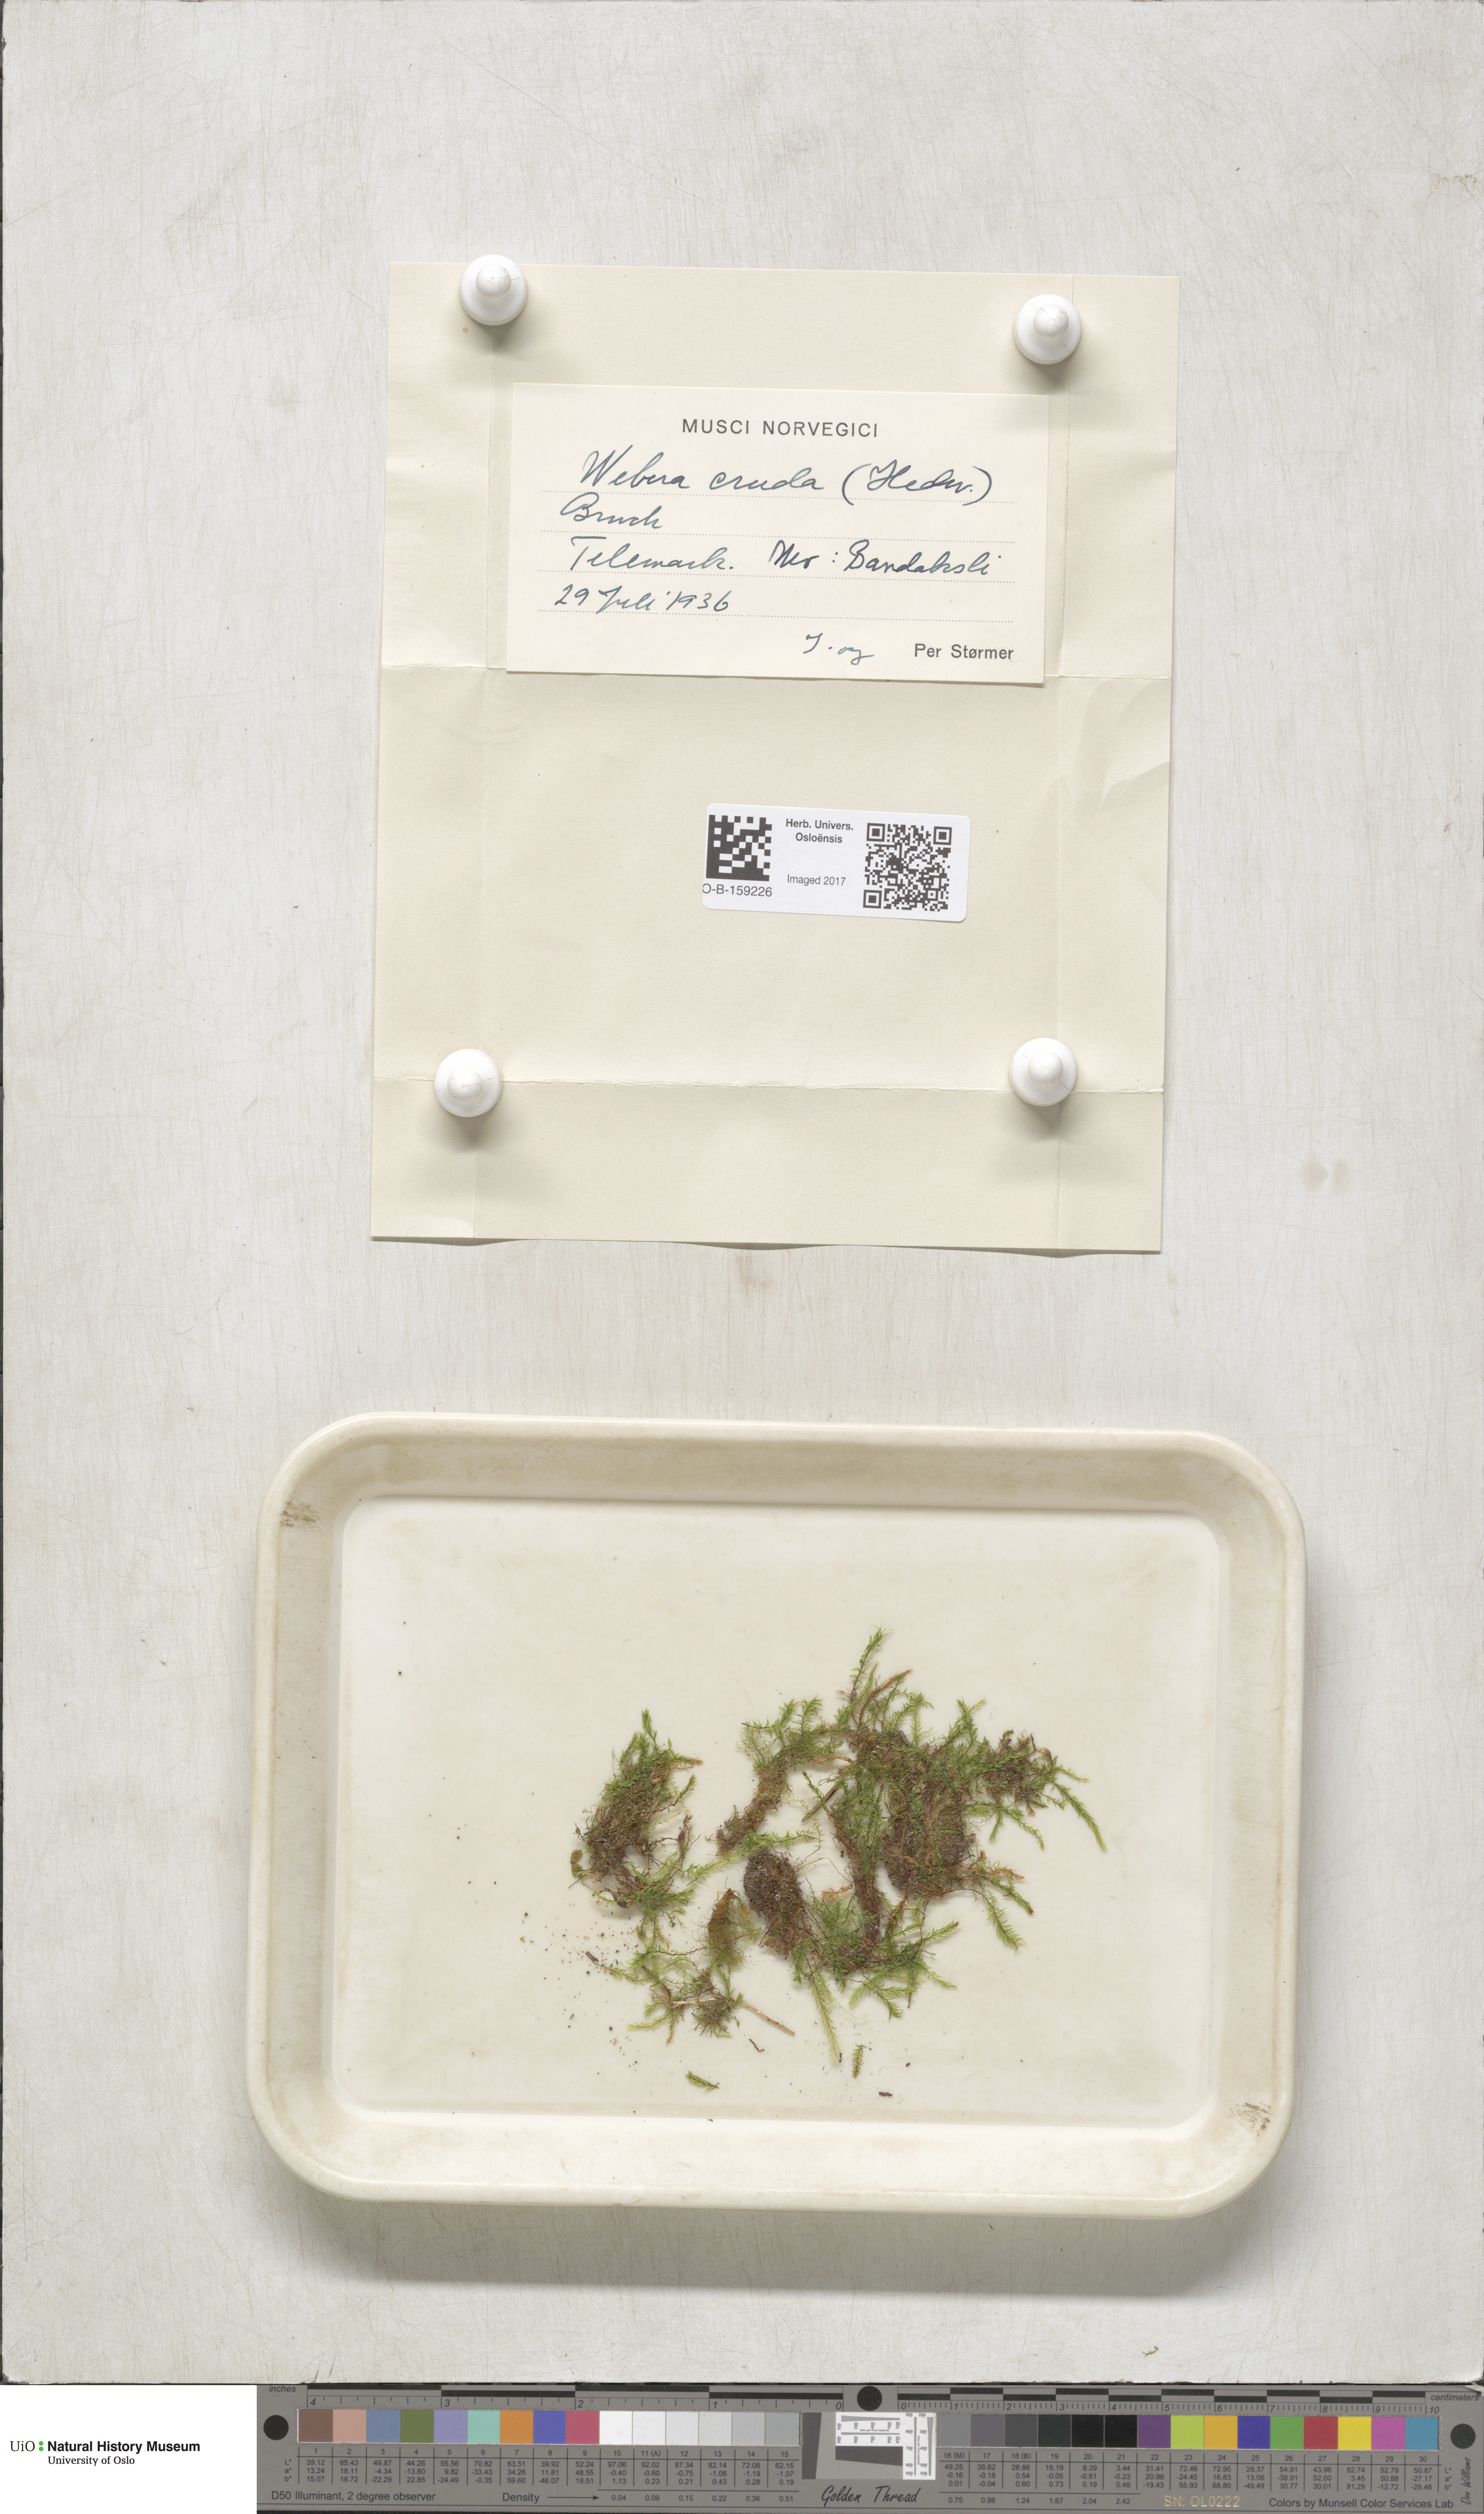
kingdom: Plantae
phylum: Bryophyta
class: Bryopsida
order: Bryales
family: Mniaceae
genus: Pohlia
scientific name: Pohlia cruda
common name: Opal nodding moss
